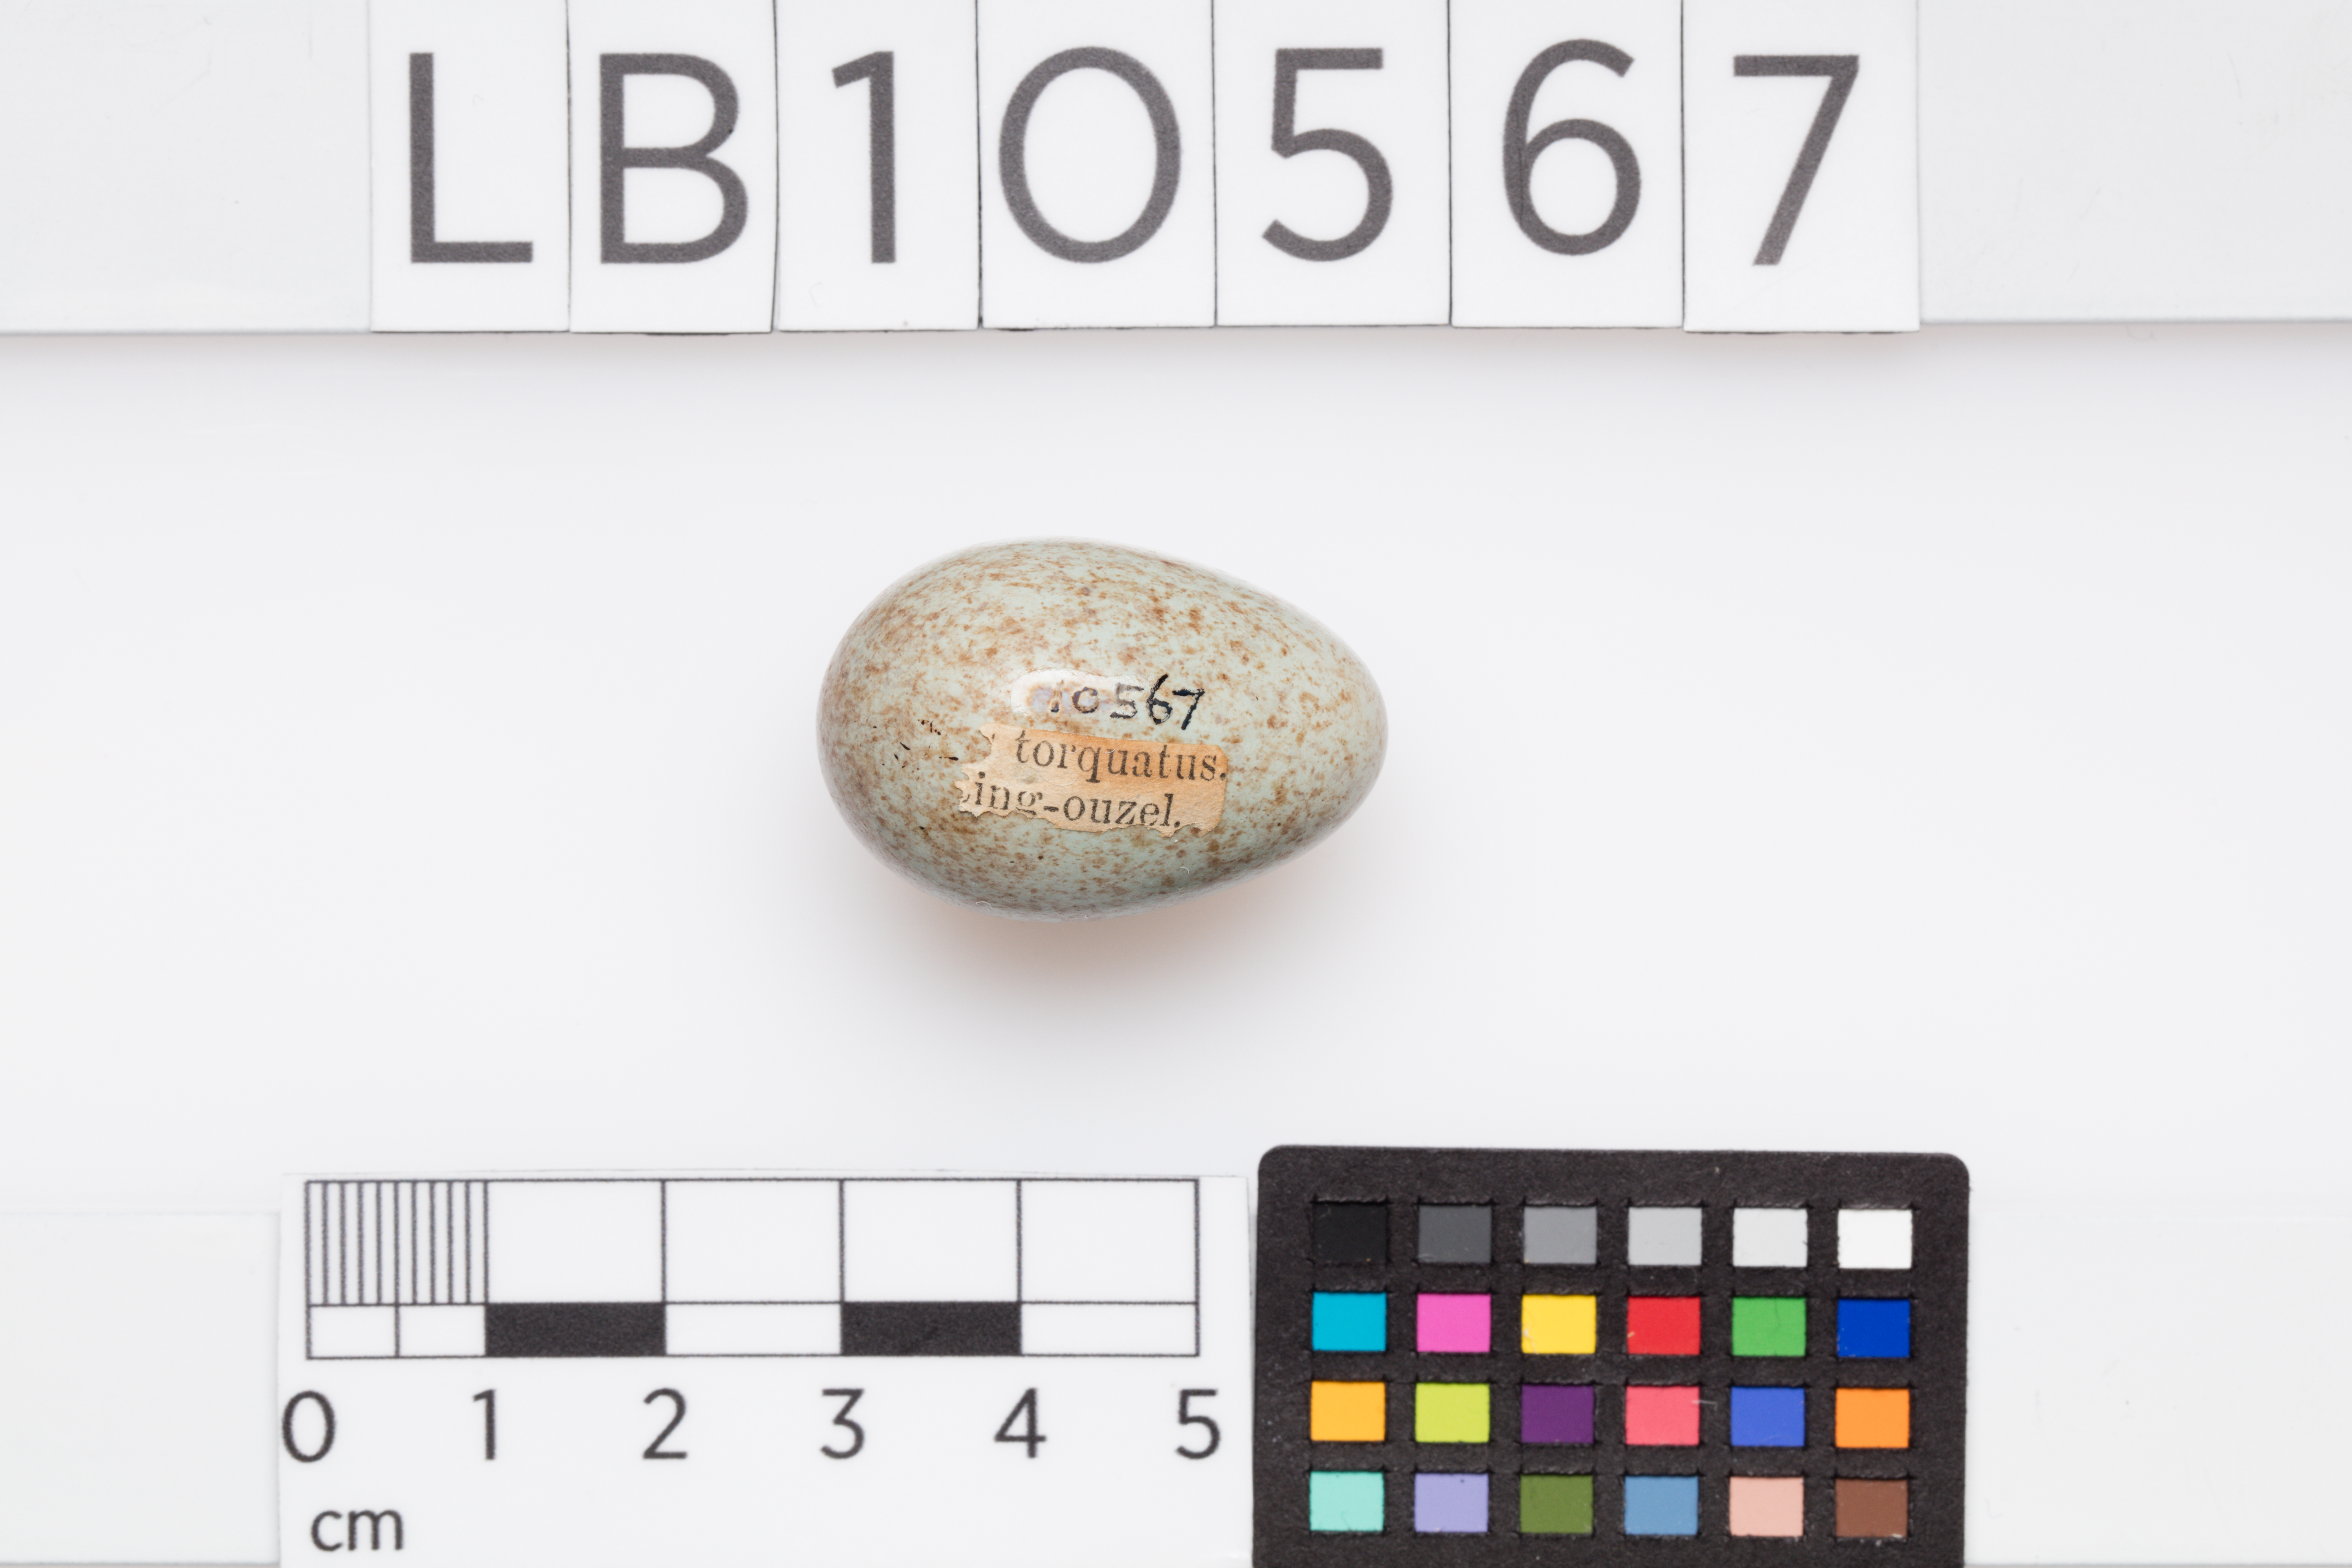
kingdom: Animalia
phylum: Chordata
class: Aves
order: Passeriformes
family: Turdidae
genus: Turdus
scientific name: Turdus torquatus
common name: Ring ouzel
